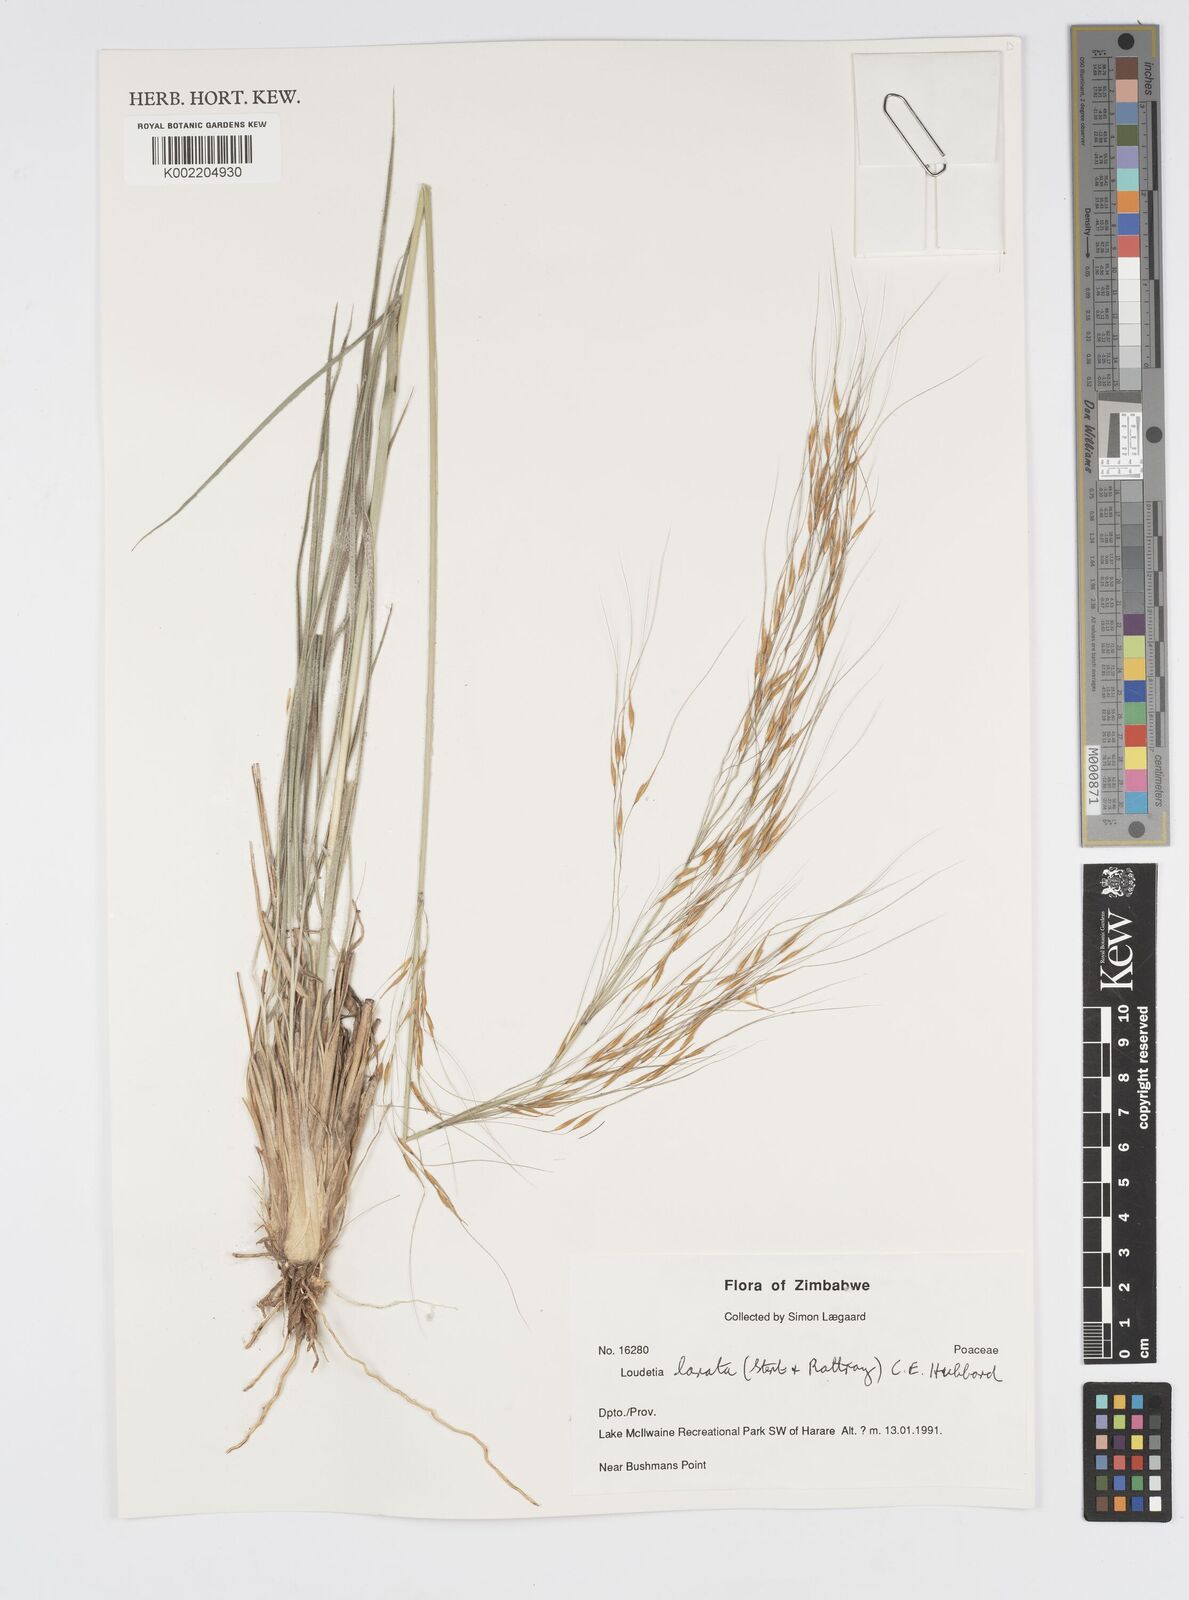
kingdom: Plantae
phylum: Tracheophyta
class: Liliopsida
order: Poales
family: Poaceae
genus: Loudetia
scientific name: Loudetia lanata
